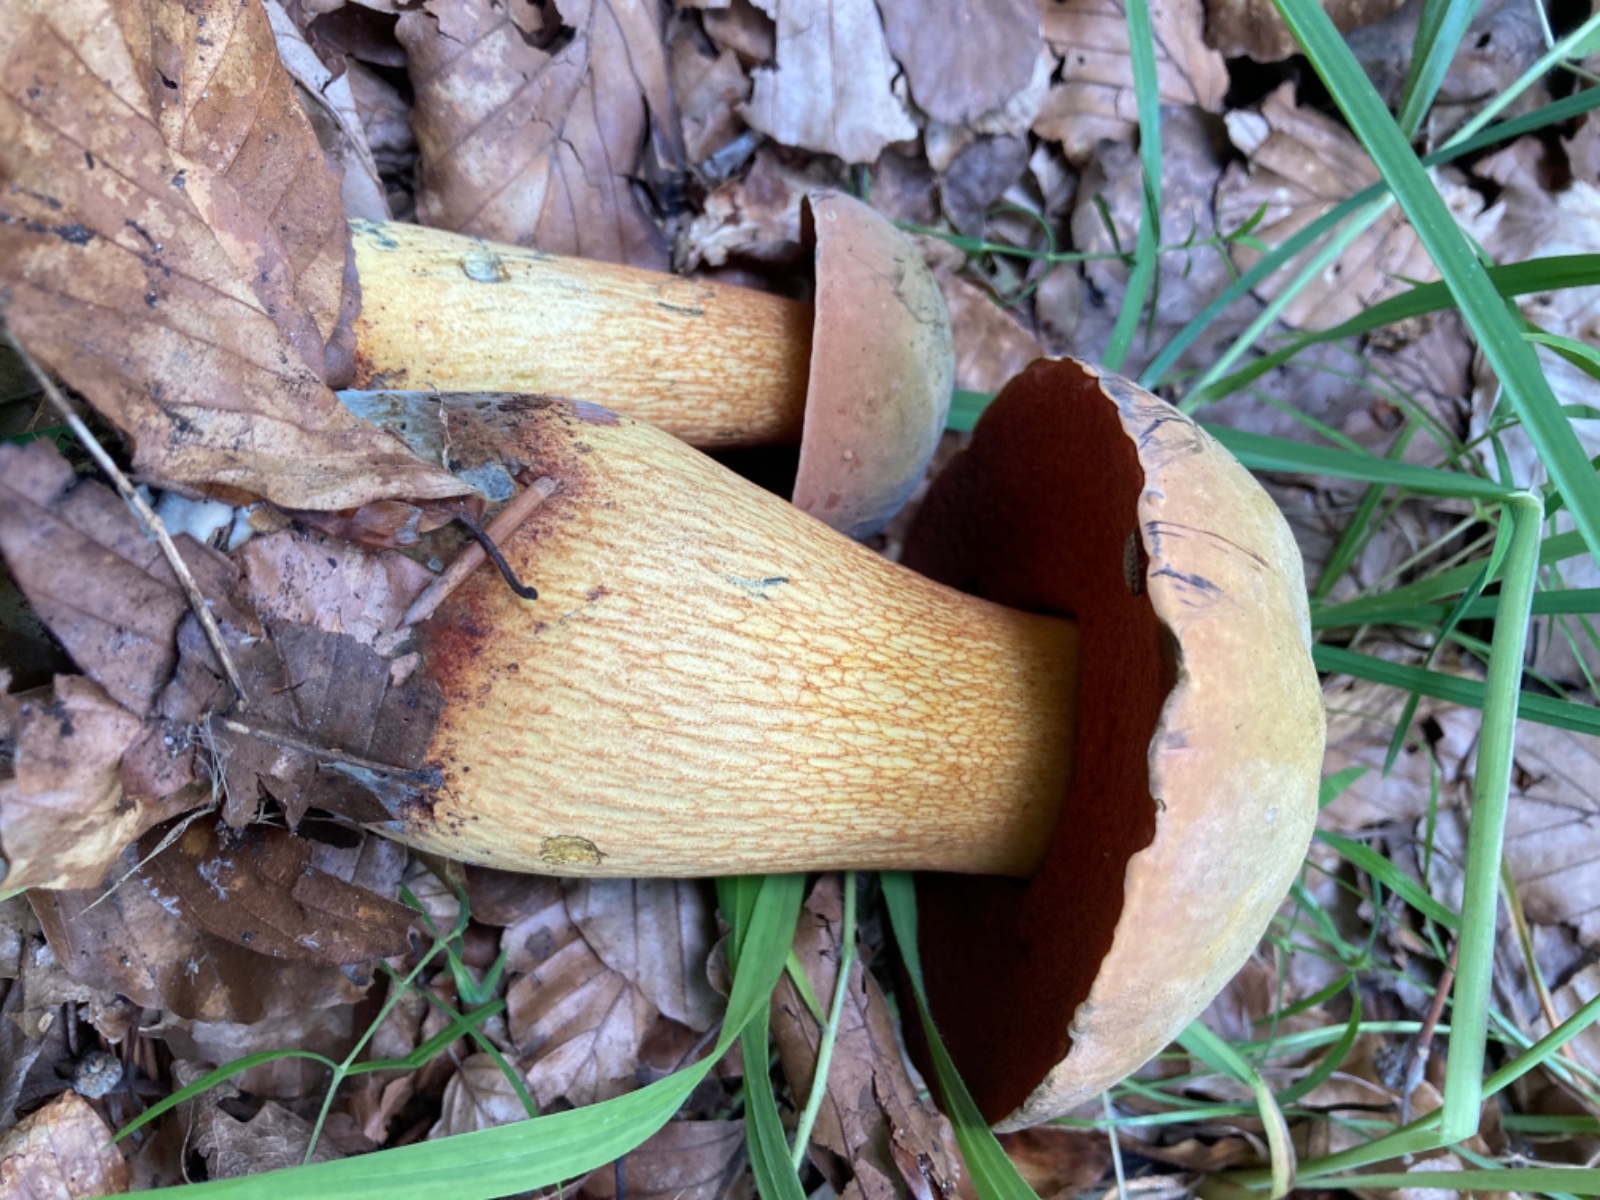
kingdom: Fungi
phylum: Basidiomycota
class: Agaricomycetes
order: Boletales
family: Boletaceae
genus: Suillellus
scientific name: Suillellus luridus
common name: netstokket indigorørhat
